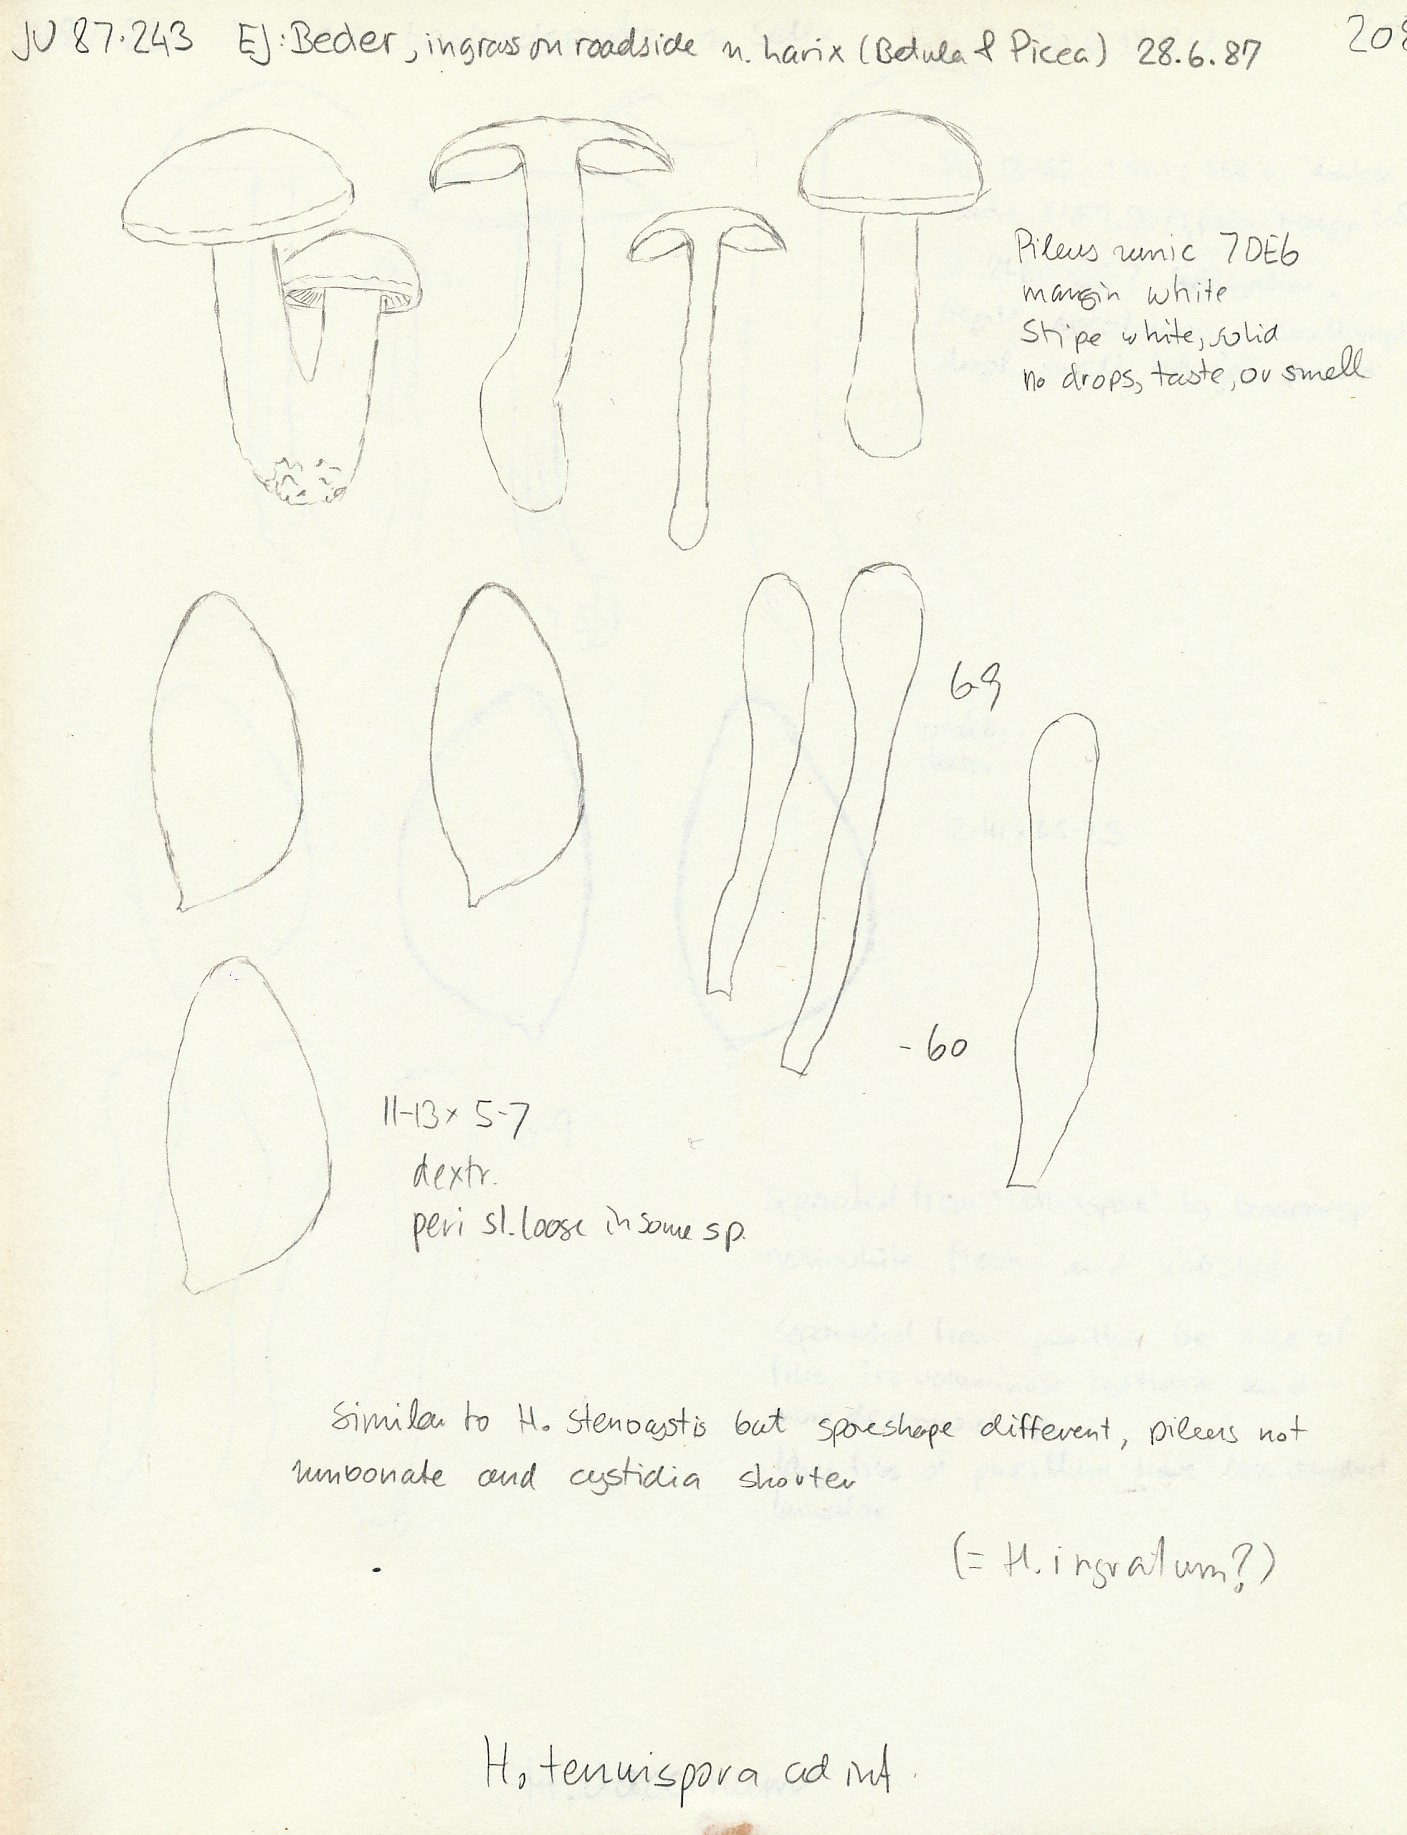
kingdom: Fungi
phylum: Basidiomycota
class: Agaricomycetes
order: Agaricales
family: Hymenogastraceae
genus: Hebeloma
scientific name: Hebeloma album
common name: skør tåreblad
